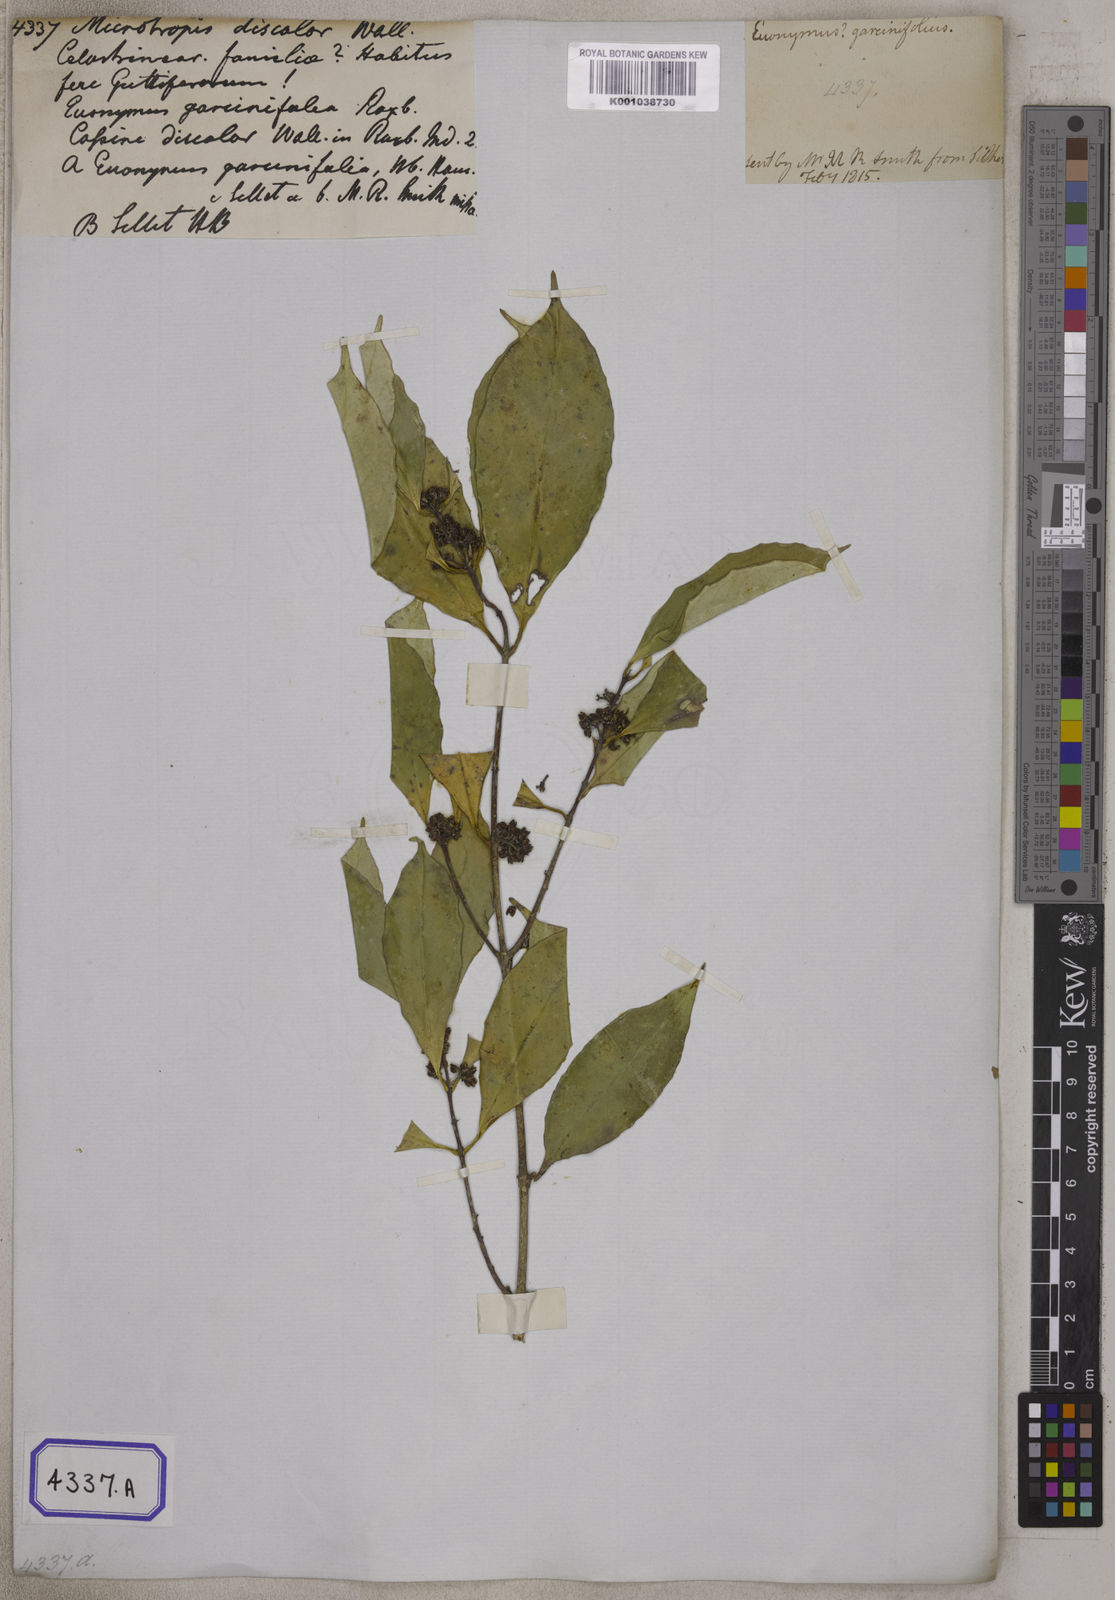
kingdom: Plantae
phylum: Tracheophyta
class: Magnoliopsida
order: Celastrales
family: Celastraceae
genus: Microtropis
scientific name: Microtropis
